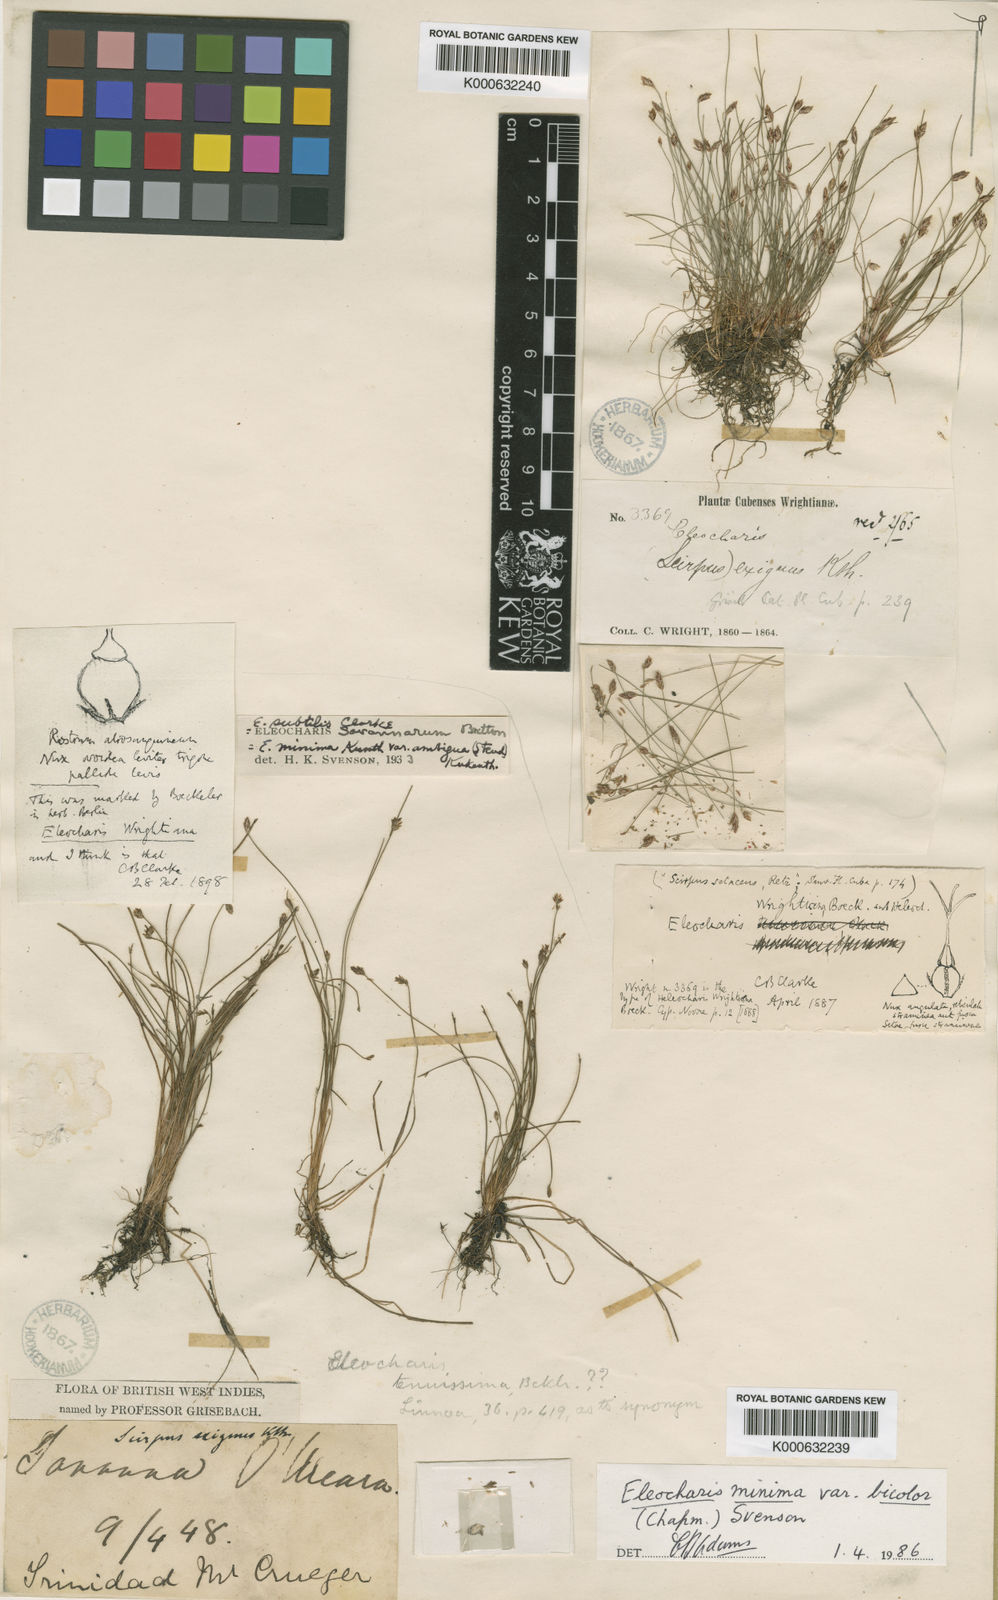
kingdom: Plantae
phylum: Tracheophyta
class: Liliopsida
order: Poales
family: Cyperaceae
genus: Eleocharis
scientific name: Eleocharis minima
